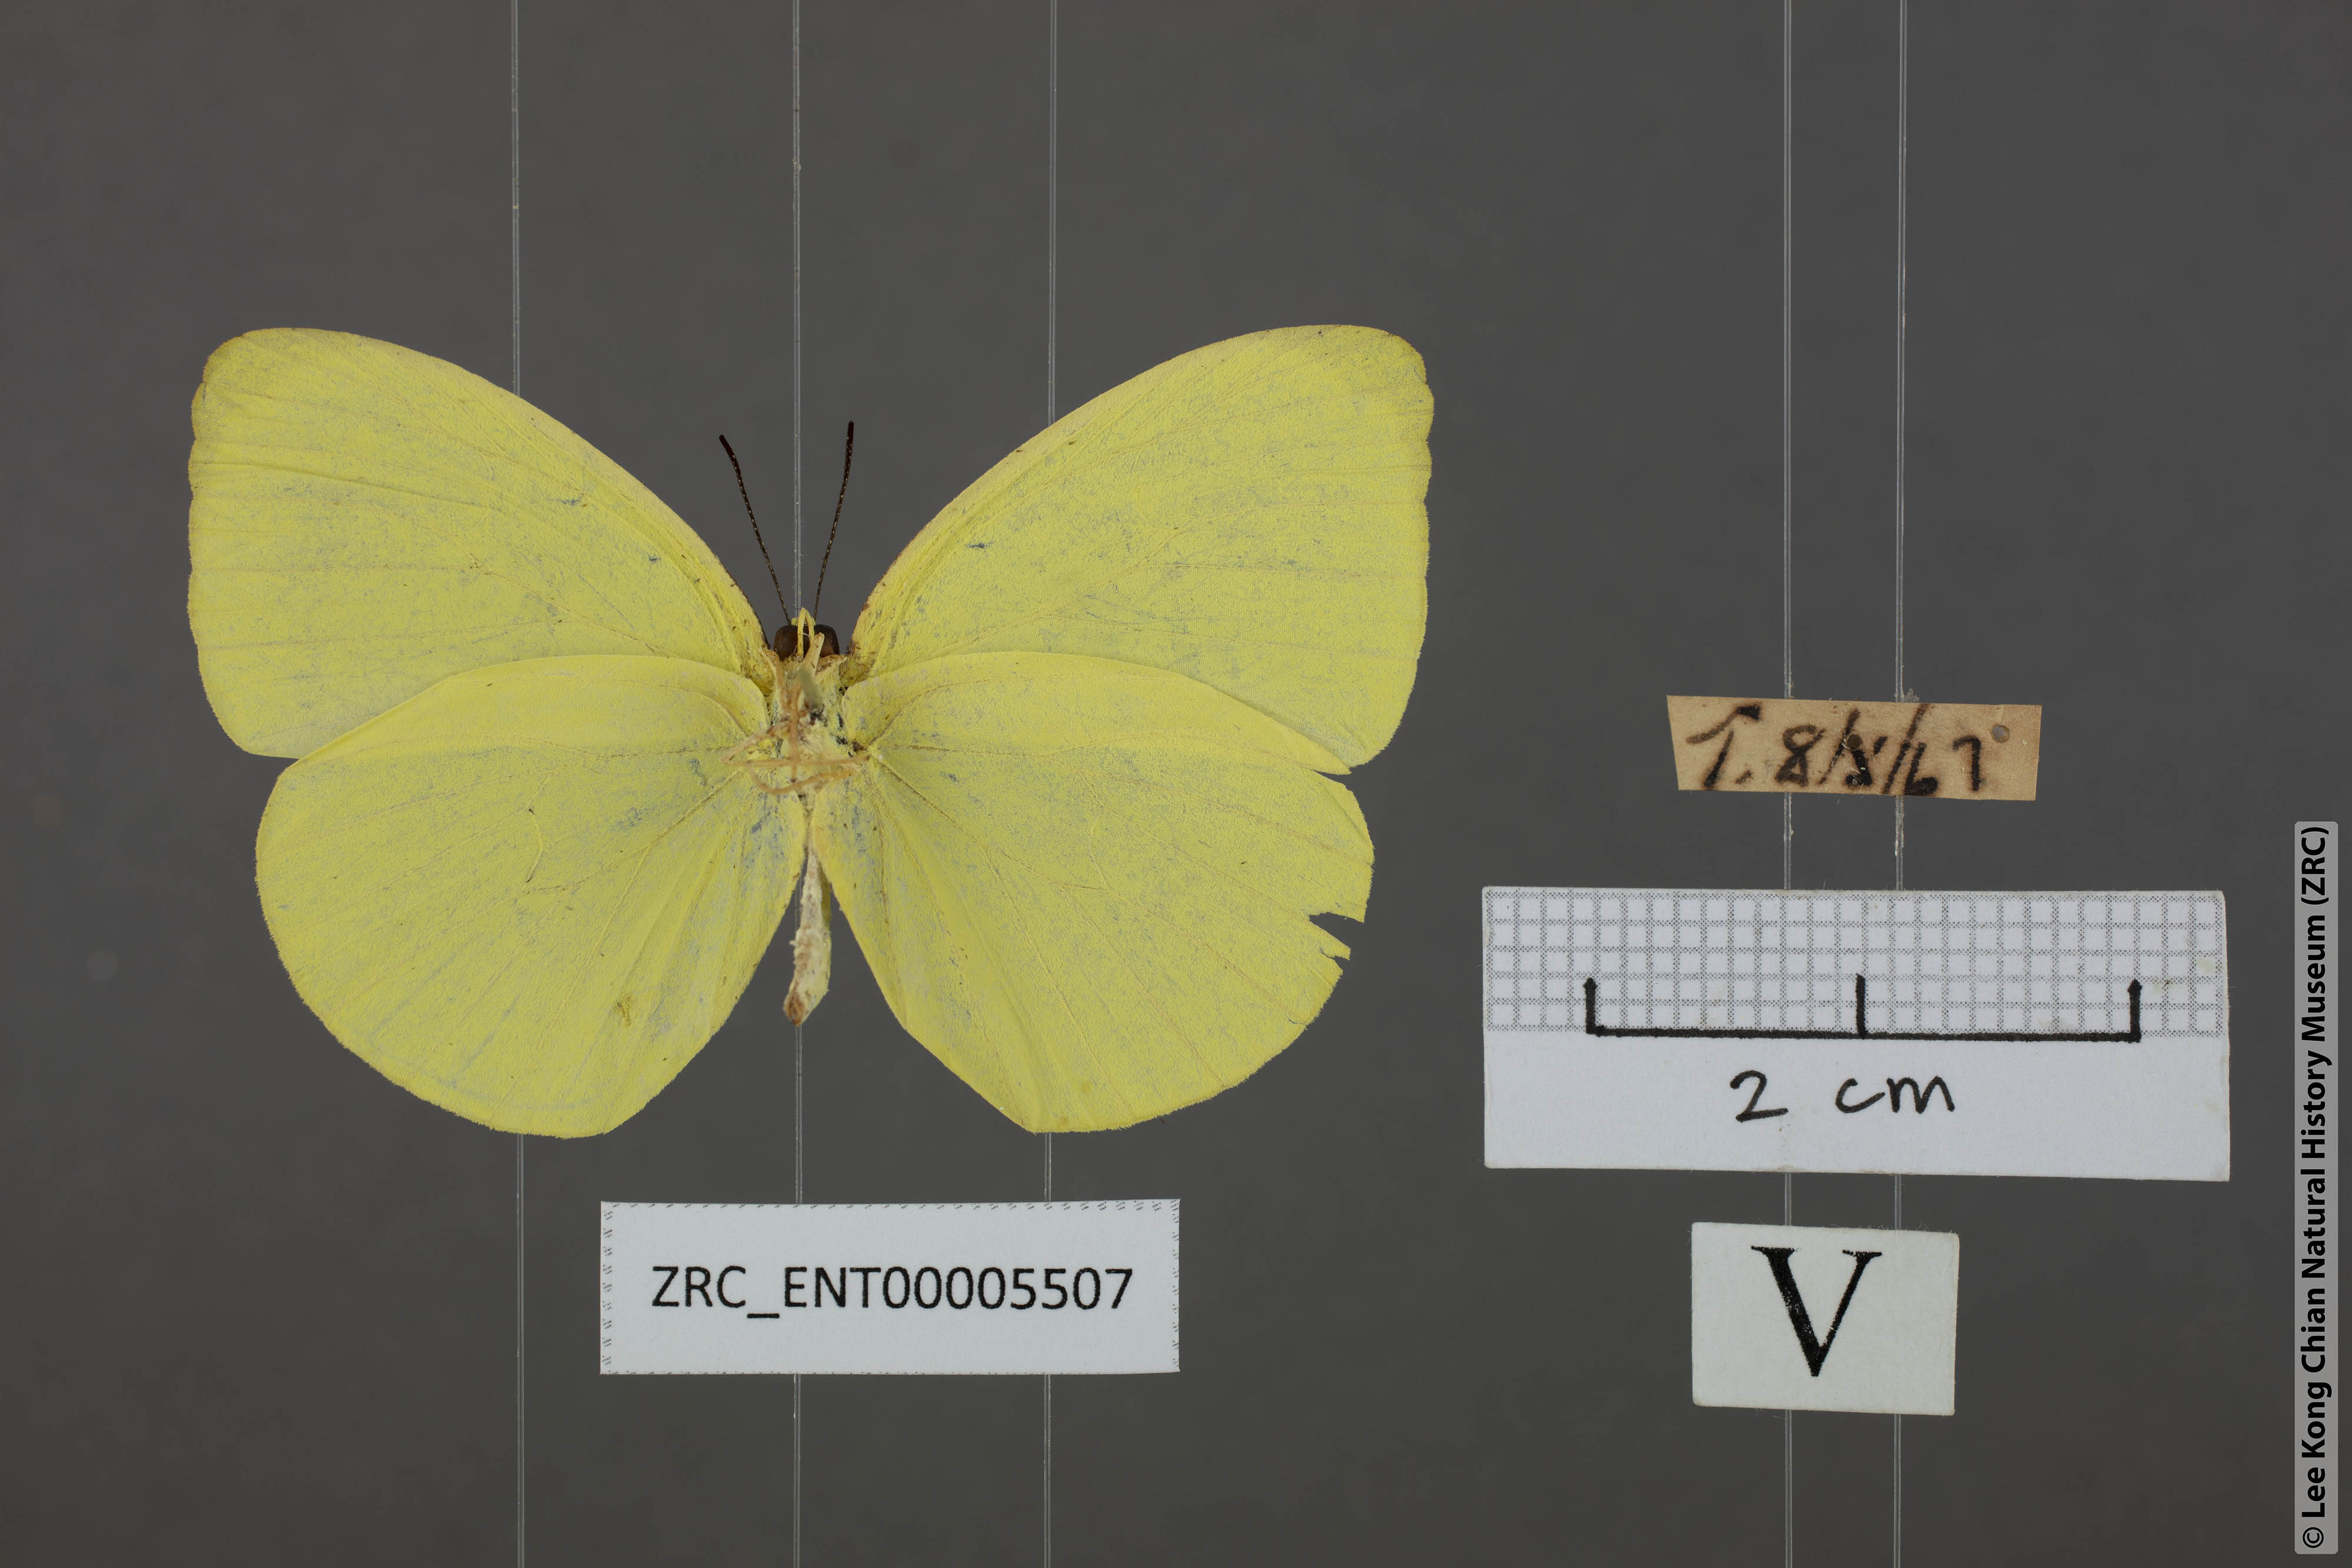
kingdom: Animalia
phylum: Arthropoda
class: Insecta
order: Lepidoptera
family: Pieridae
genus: Gandaca
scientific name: Gandaca harina
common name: Tree yellow
